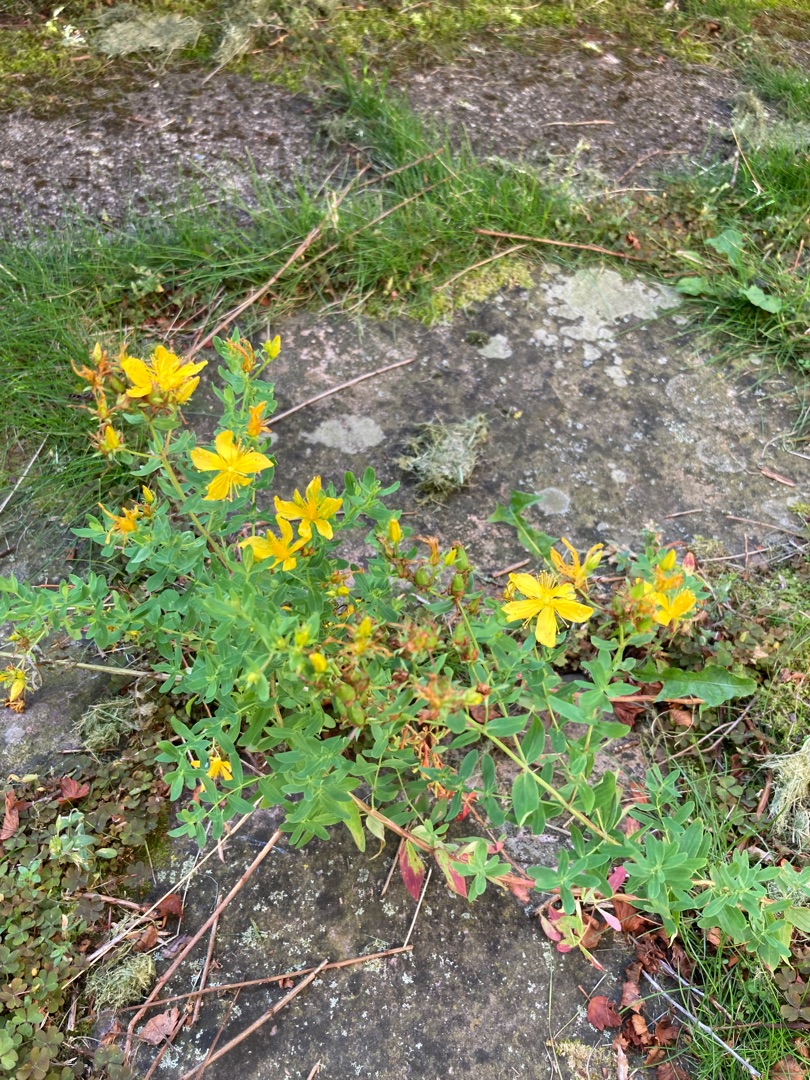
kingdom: Plantae
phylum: Tracheophyta
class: Magnoliopsida
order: Malpighiales
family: Hypericaceae
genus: Hypericum
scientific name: Hypericum perforatum
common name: Prikbladet perikon
